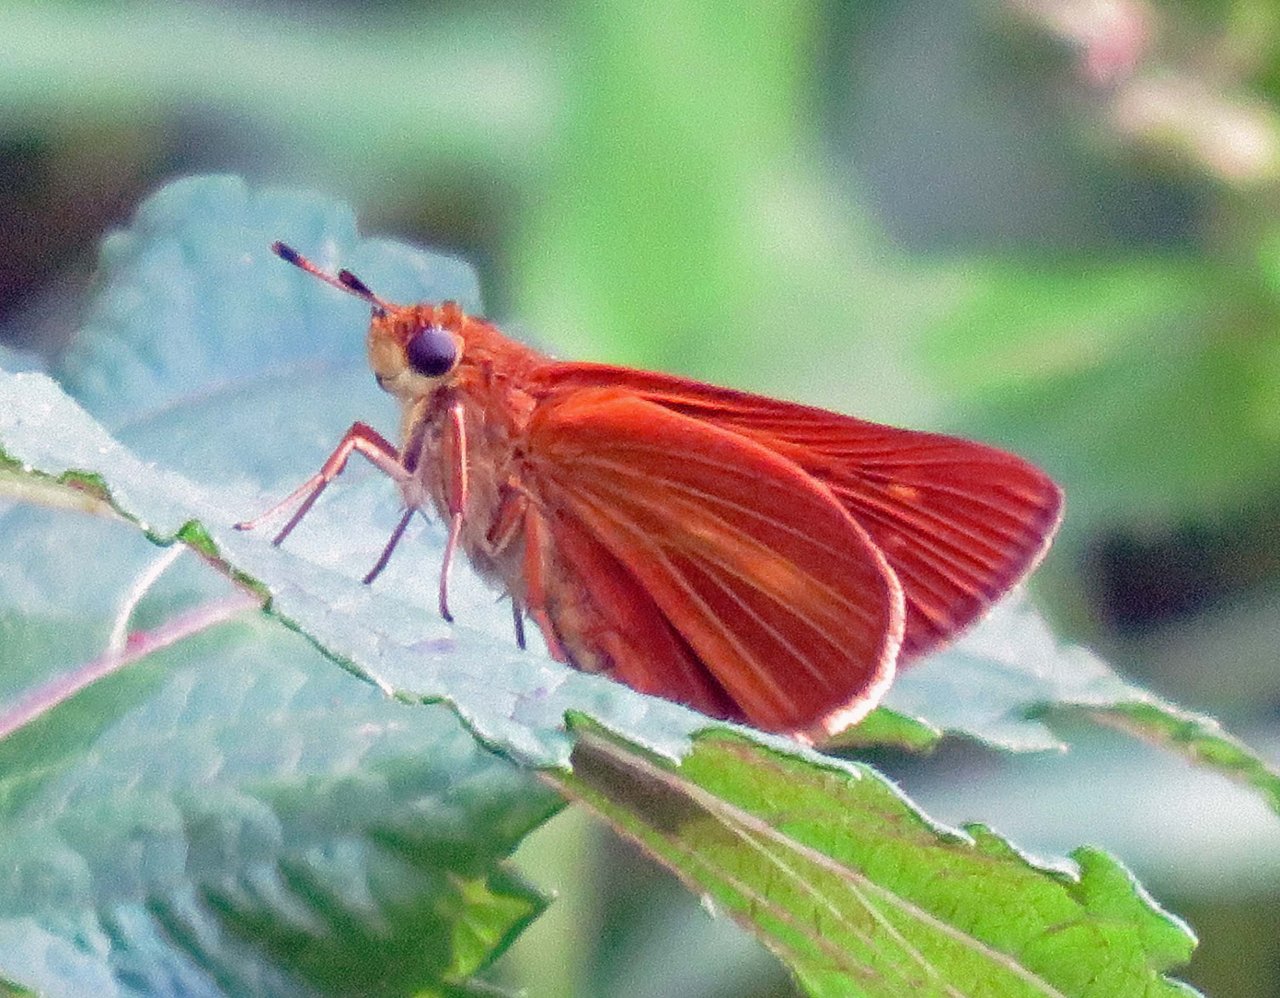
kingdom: Animalia
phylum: Arthropoda
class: Insecta
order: Lepidoptera
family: Hesperiidae
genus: Euphyes
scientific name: Euphyes dion
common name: Dion Skipper
